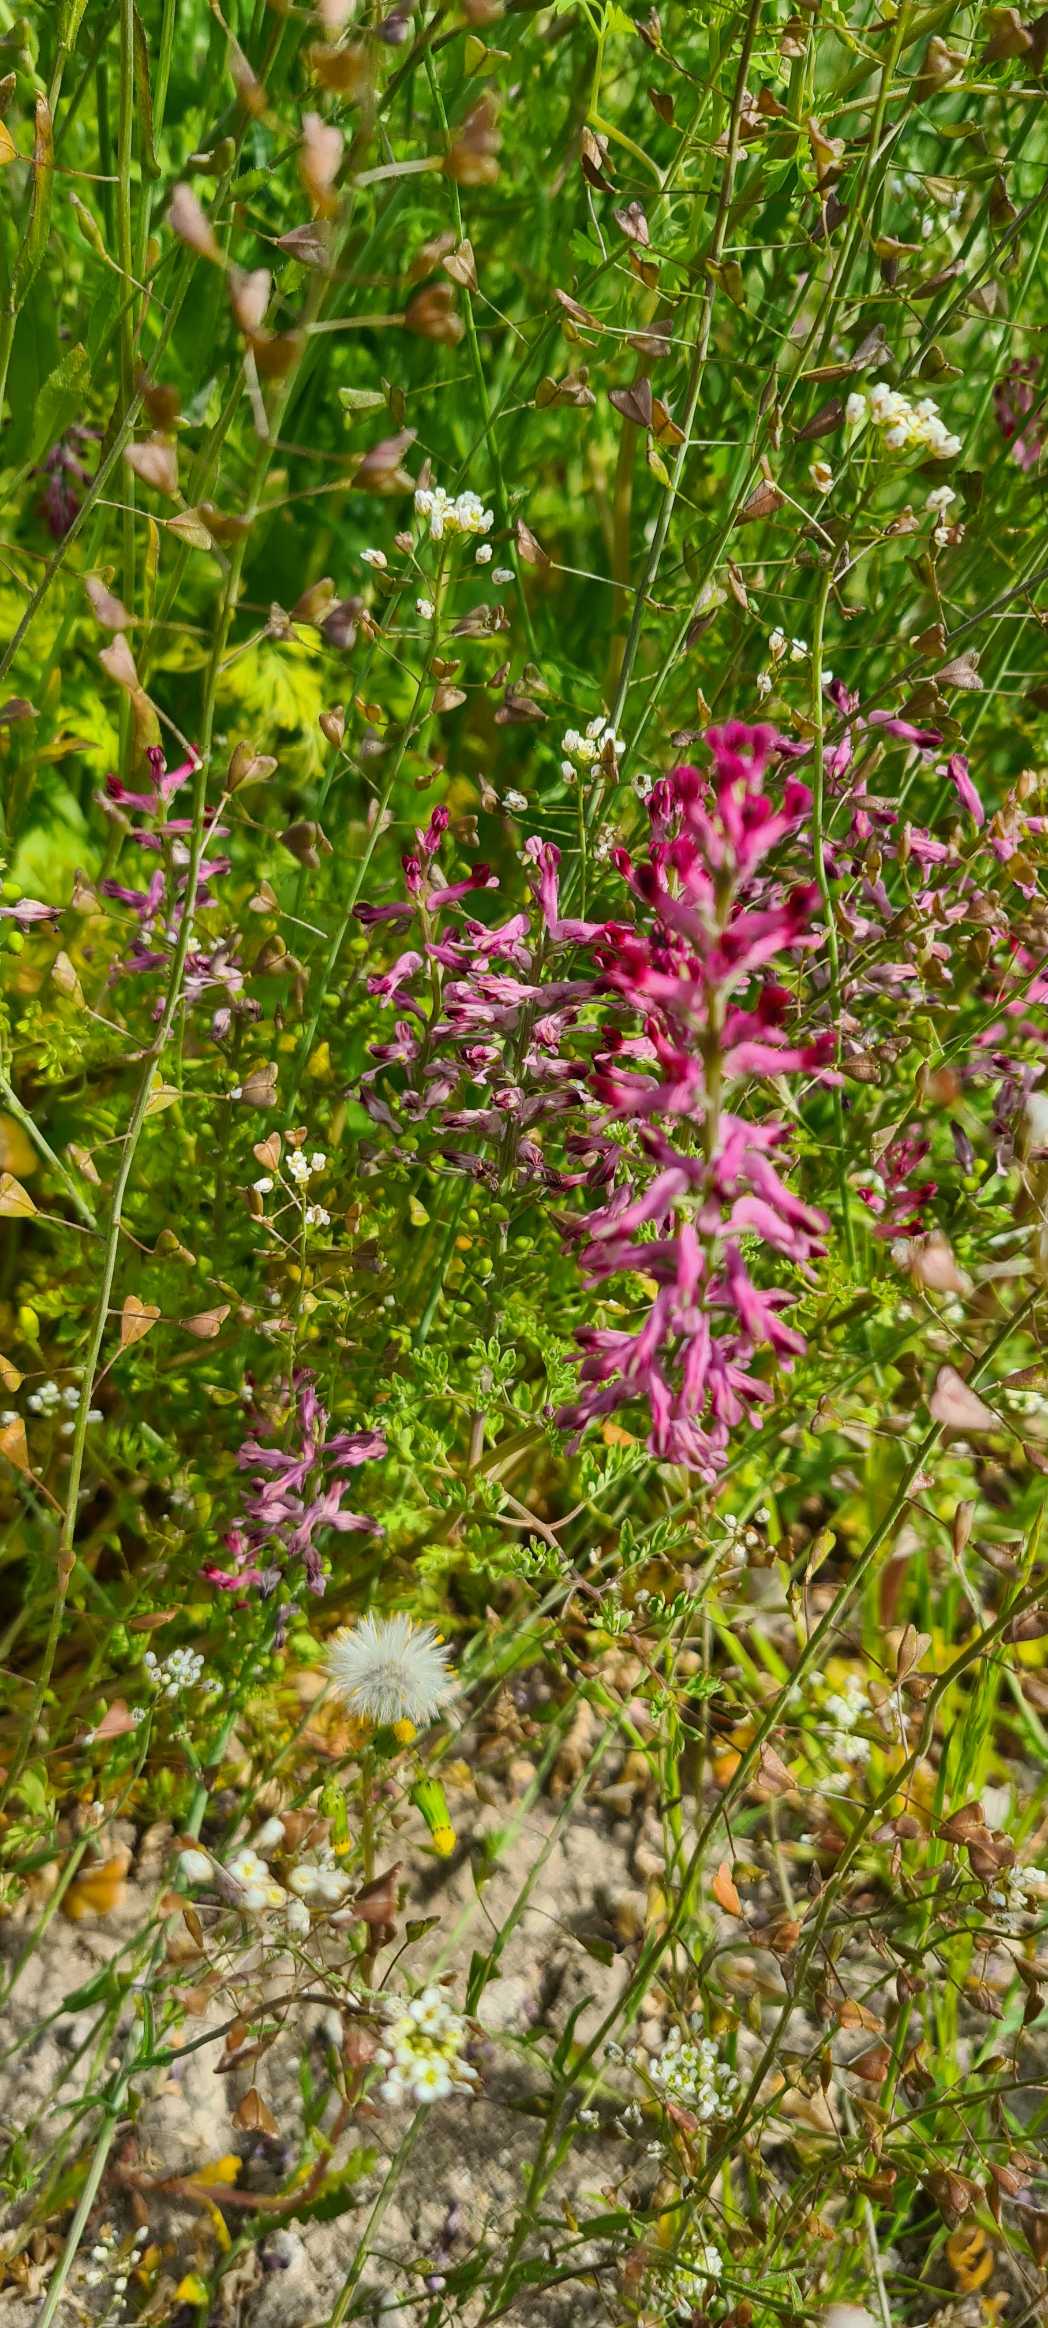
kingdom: Plantae
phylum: Tracheophyta
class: Magnoliopsida
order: Ranunculales
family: Papaveraceae
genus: Fumaria
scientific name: Fumaria officinalis
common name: Læge-jordrøg
